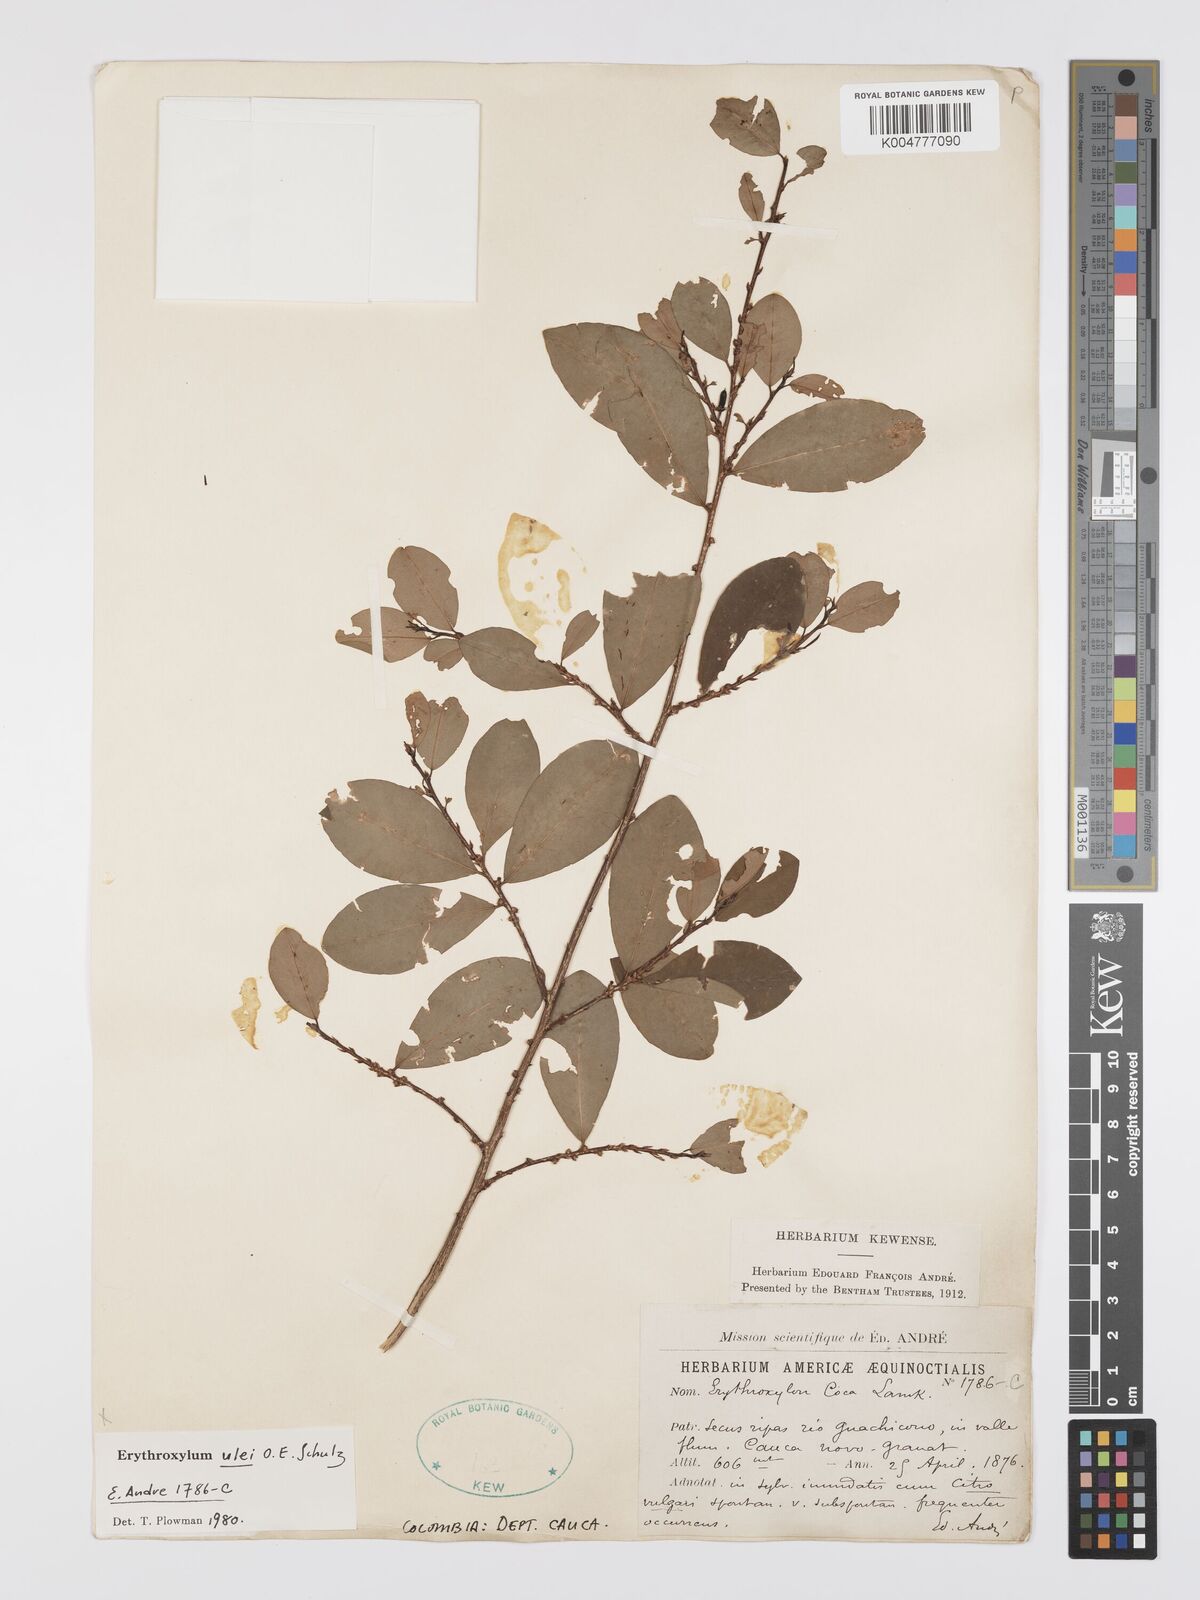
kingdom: Plantae
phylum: Tracheophyta
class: Magnoliopsida
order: Malpighiales
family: Erythroxylaceae
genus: Erythroxylum
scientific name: Erythroxylum ulei
